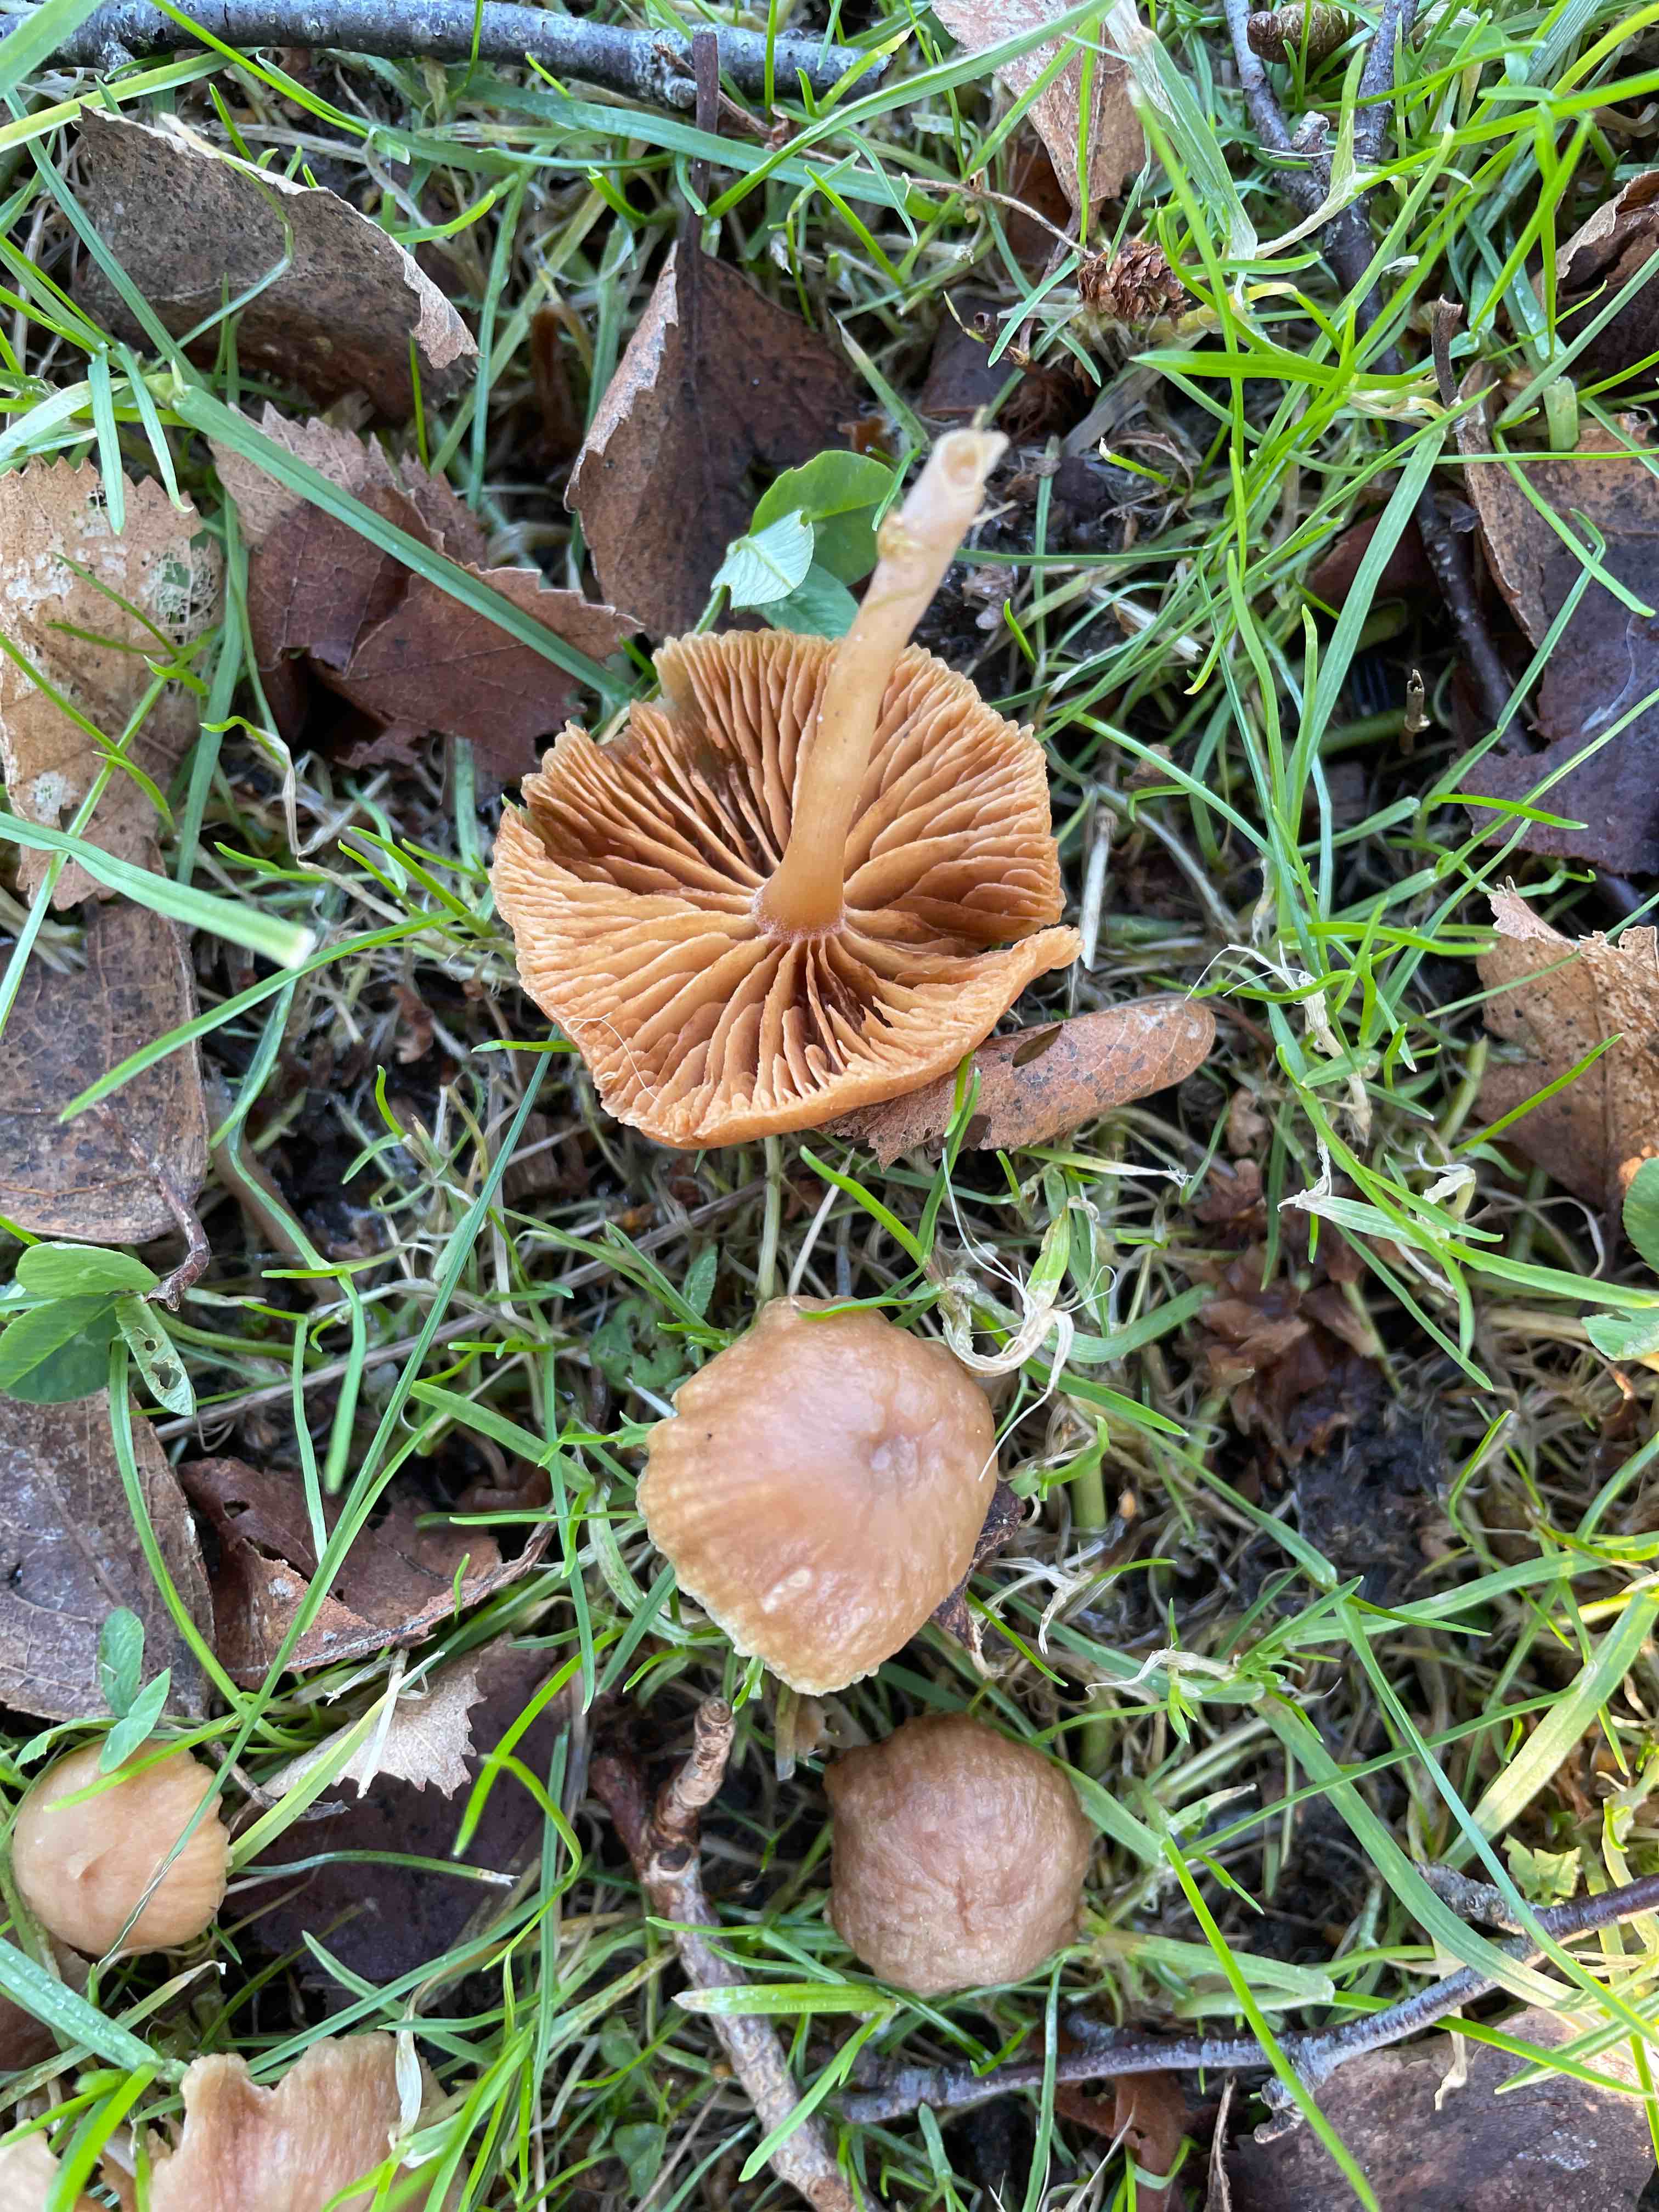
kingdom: Fungi
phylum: Basidiomycota
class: Agaricomycetes
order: Agaricales
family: Tubariaceae
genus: Tubaria
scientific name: Tubaria furfuracea
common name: kliddet fnughat
